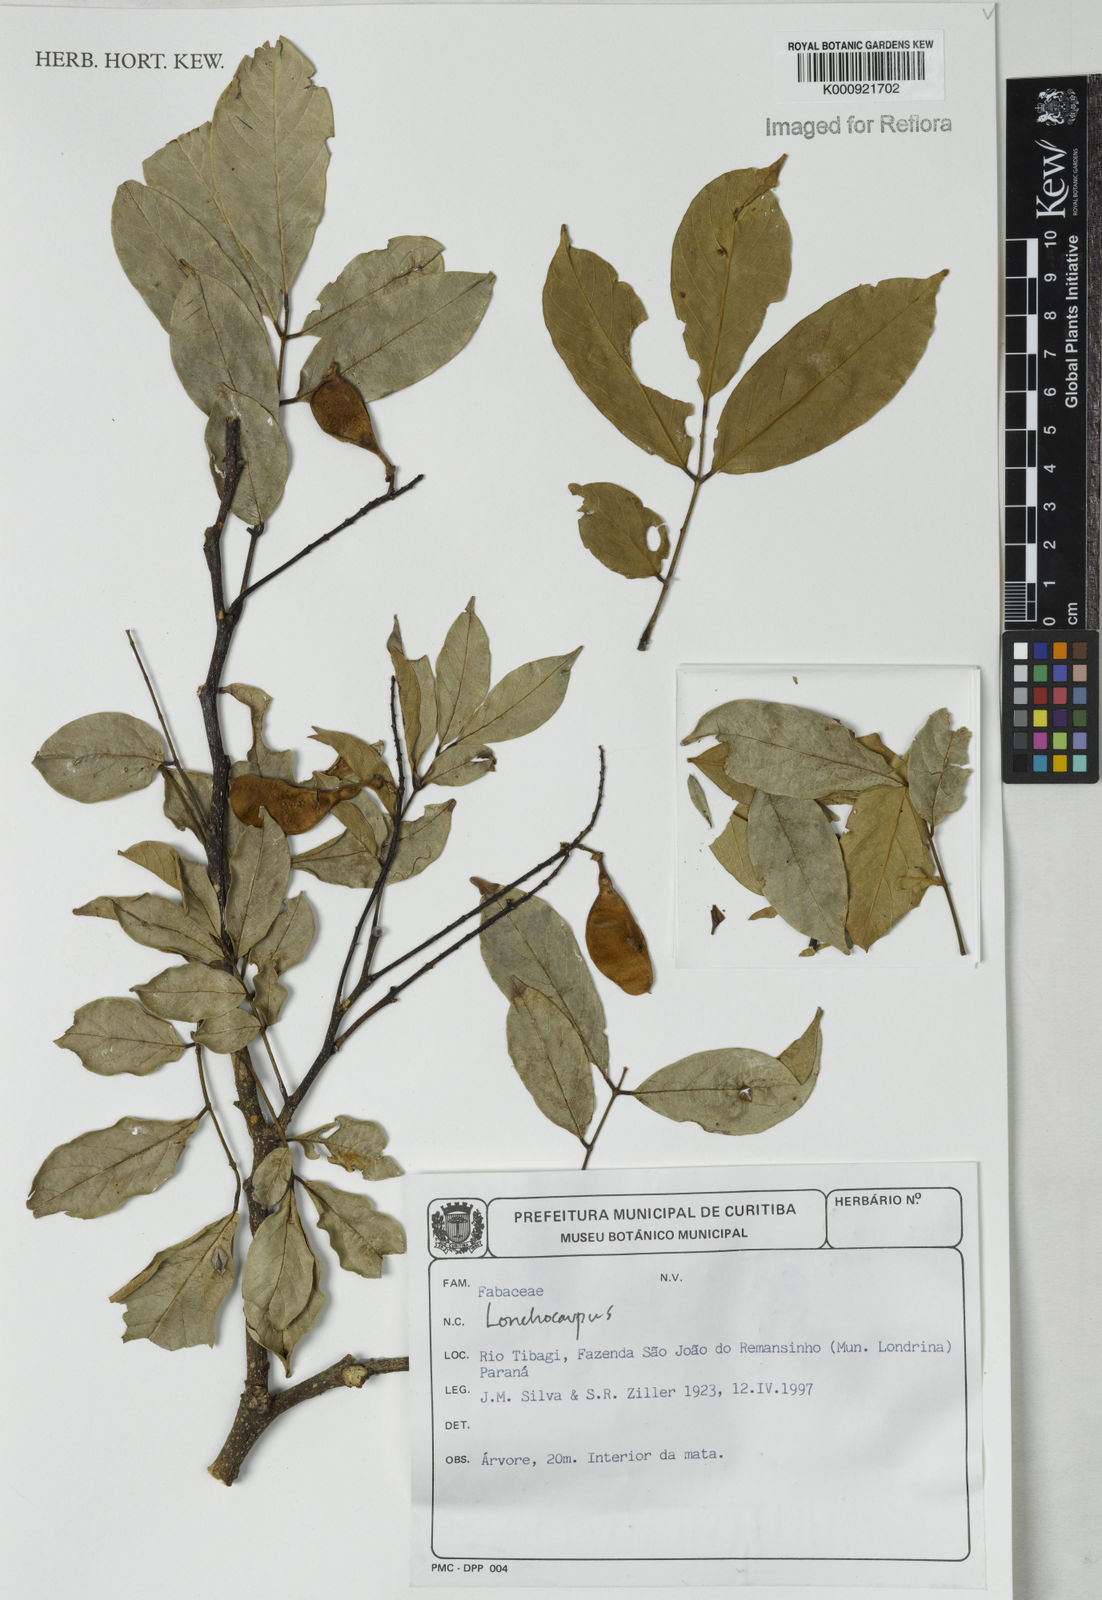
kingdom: Plantae
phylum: Tracheophyta
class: Magnoliopsida
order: Fabales
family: Fabaceae
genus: Lonchocarpus
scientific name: Lonchocarpus
